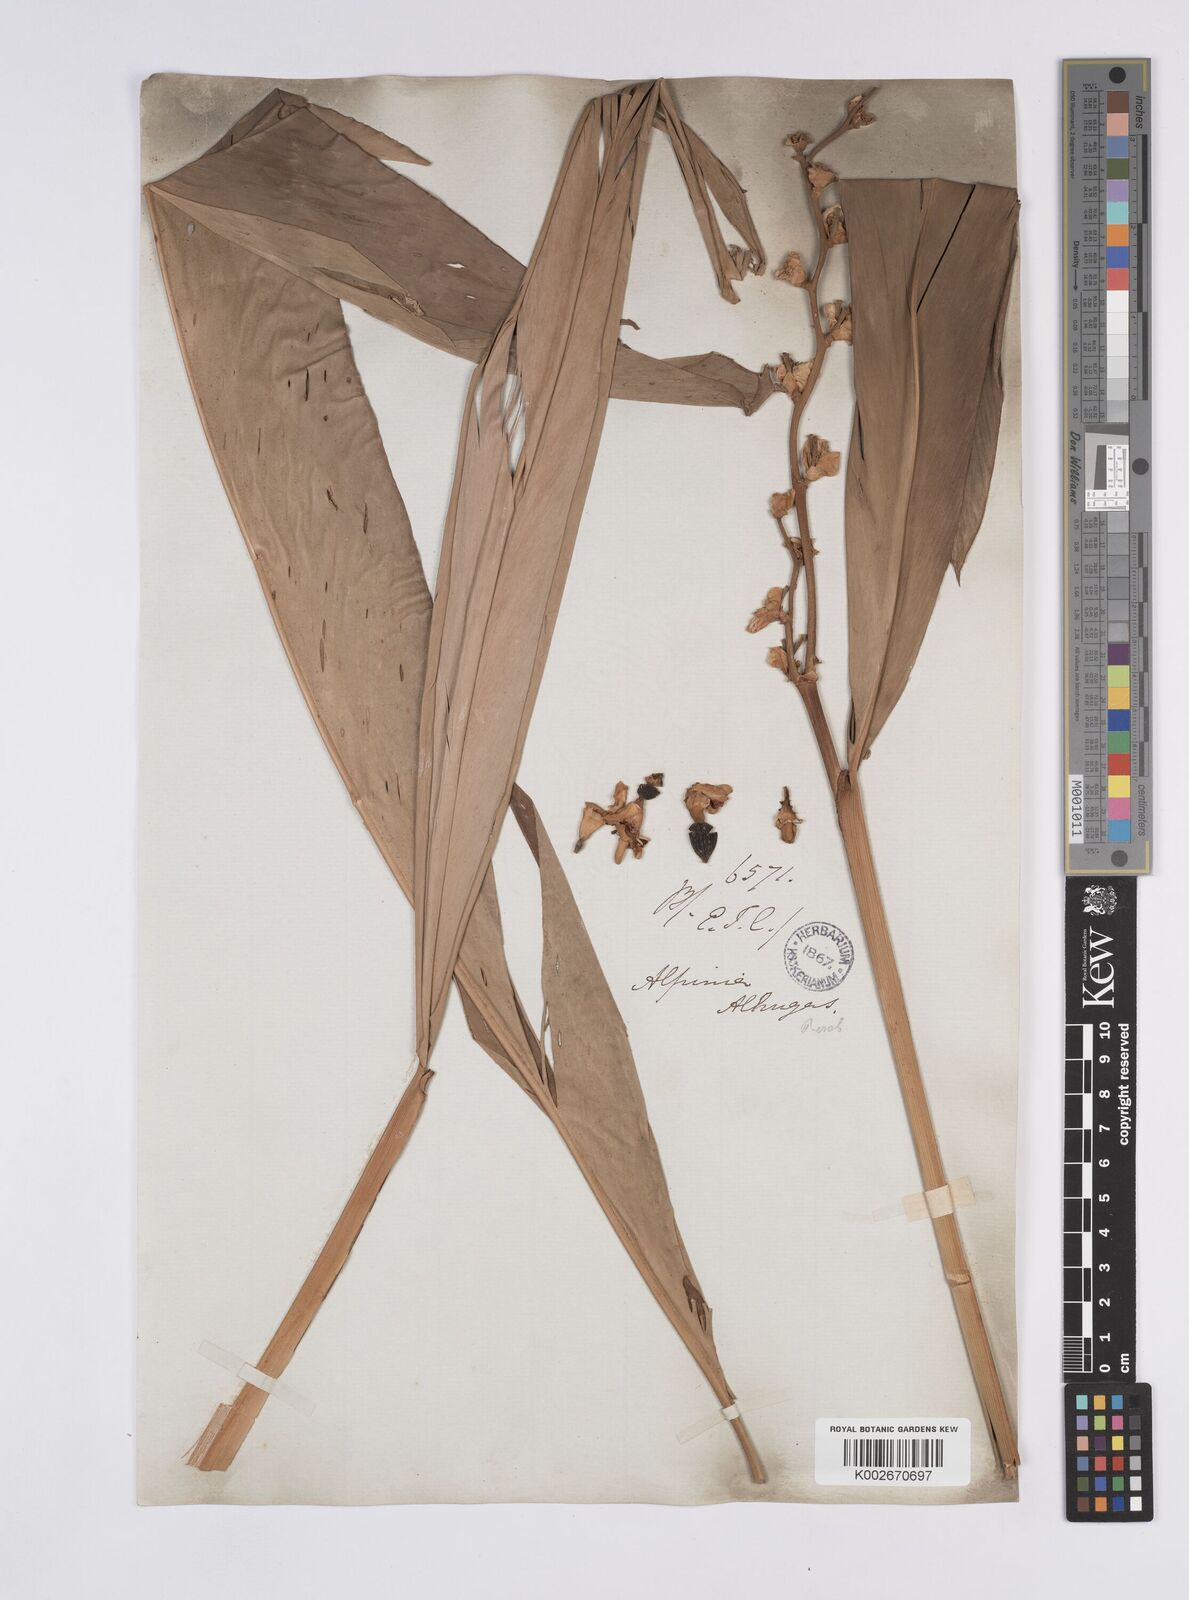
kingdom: Plantae
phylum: Tracheophyta
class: Liliopsida
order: Zingiberales
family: Zingiberaceae
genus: Alpinia
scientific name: Alpinia nigra
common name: Black fruited galanga
